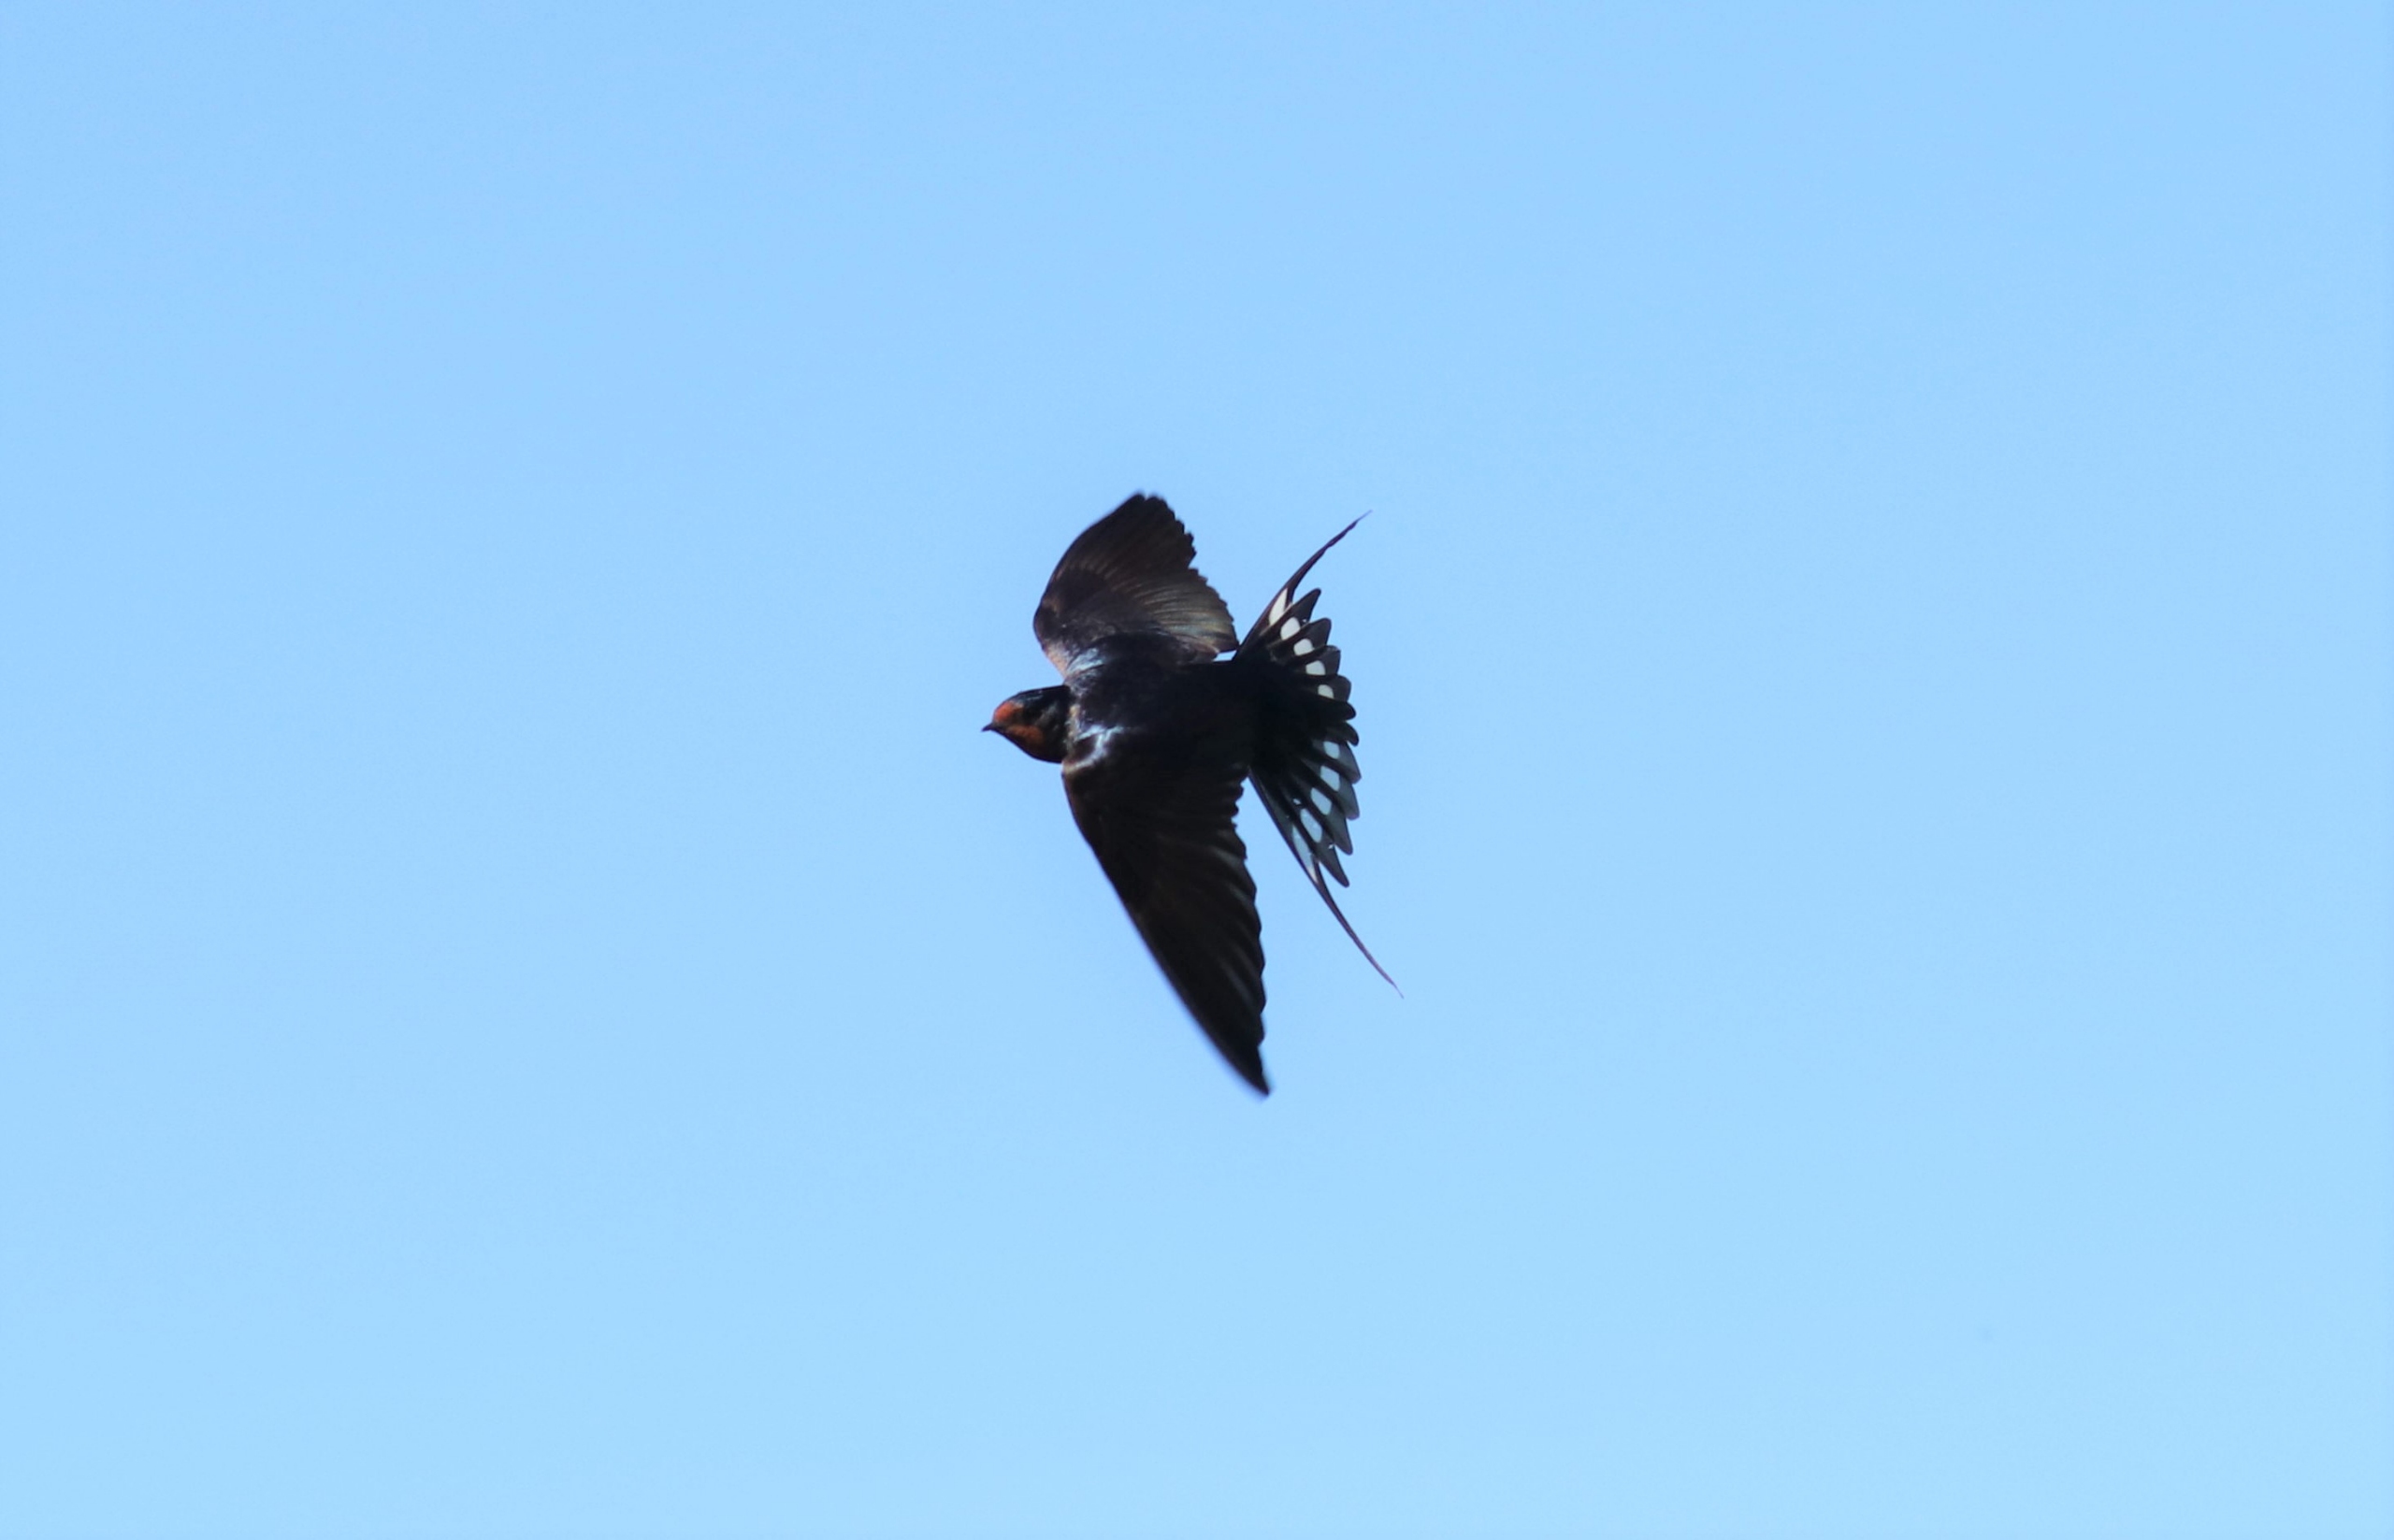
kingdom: Animalia
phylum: Chordata
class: Aves
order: Passeriformes
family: Hirundinidae
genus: Hirundo
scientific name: Hirundo rustica
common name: Landsvale
